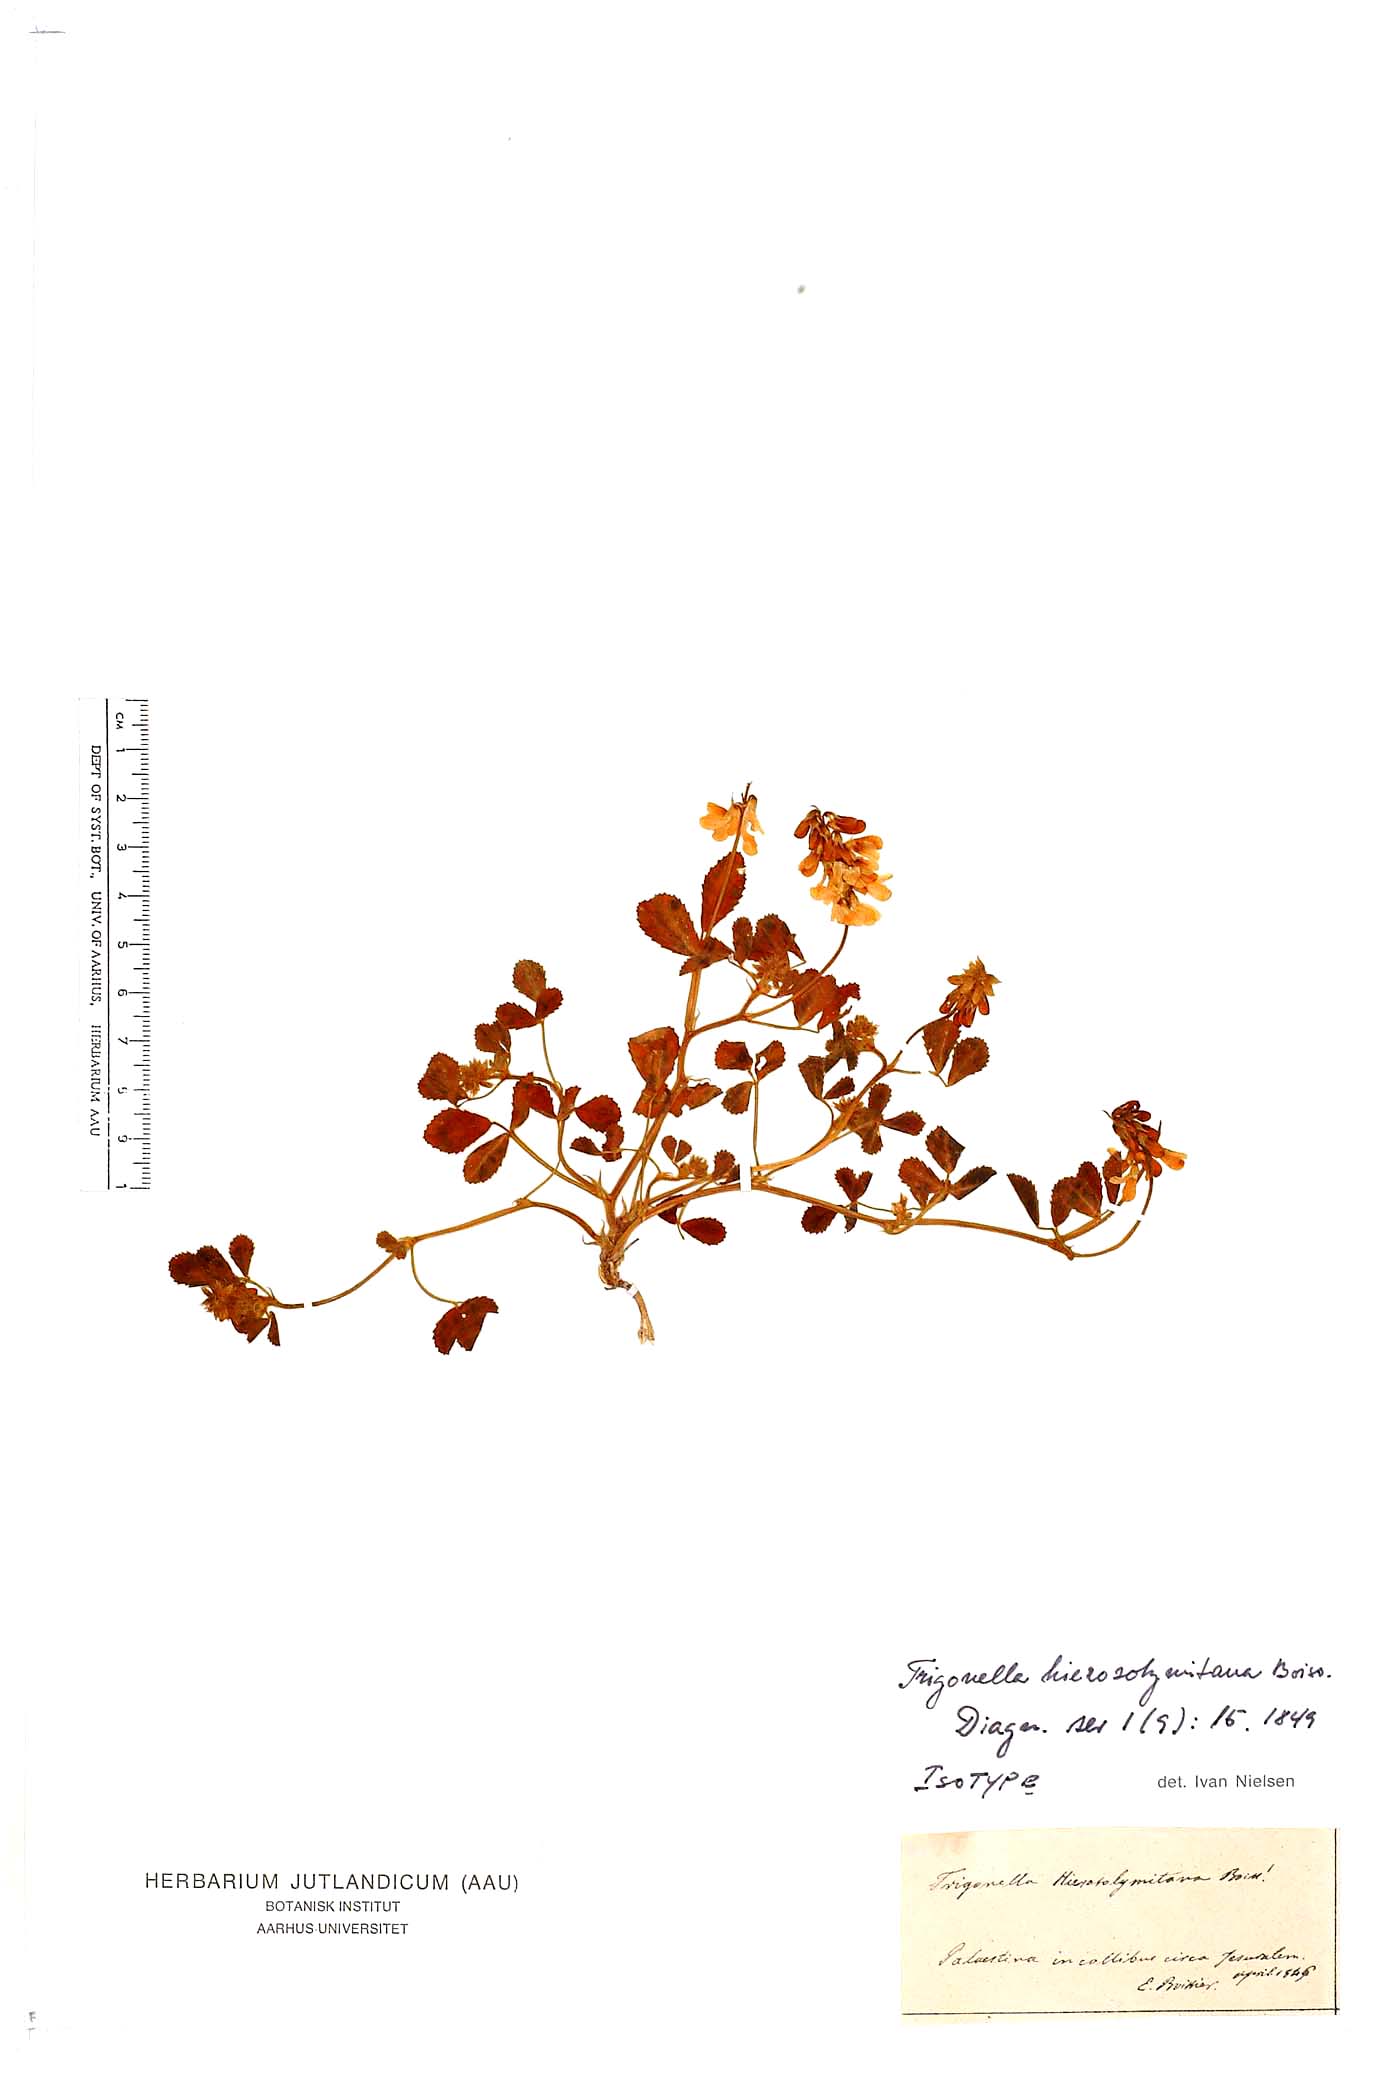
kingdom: Plantae
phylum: Tracheophyta
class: Magnoliopsida
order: Fabales
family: Fabaceae
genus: Trigonella
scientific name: Trigonella hierosolymitana
